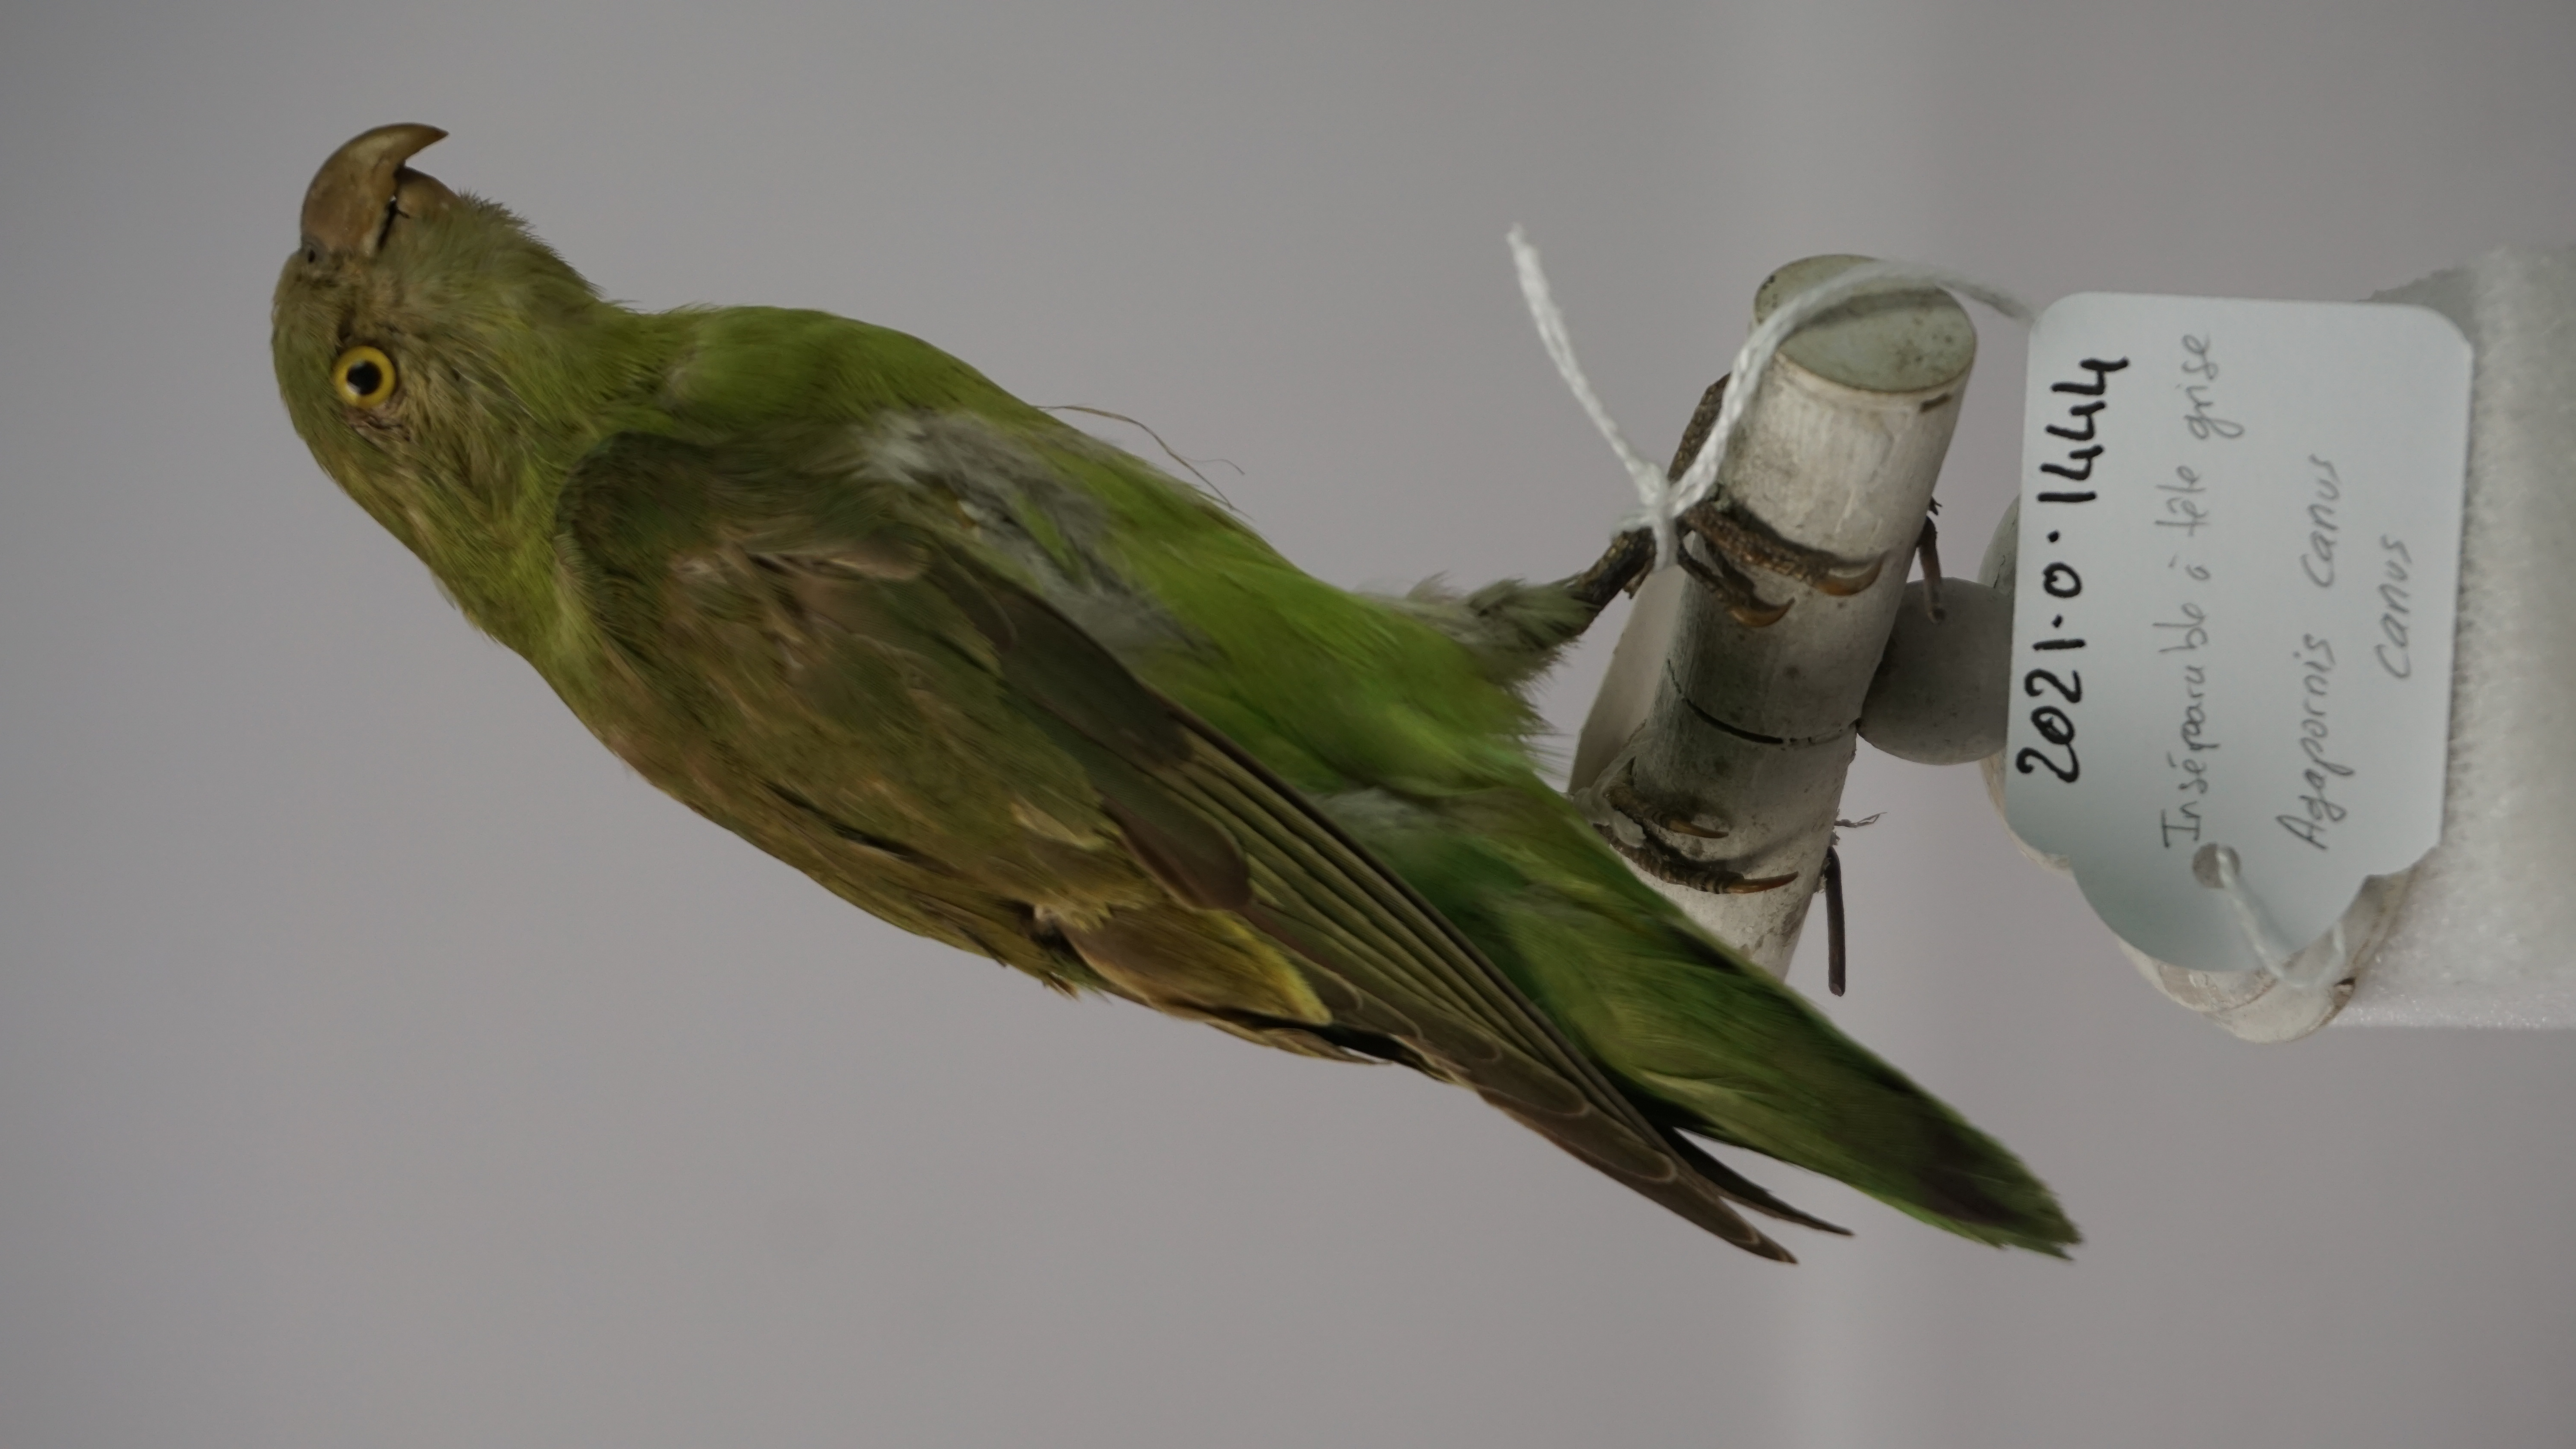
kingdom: Animalia
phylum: Chordata
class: Aves
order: Psittaciformes
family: Psittacidae
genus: Agapornis
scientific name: Agapornis canus
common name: Grey-headed lovebird
